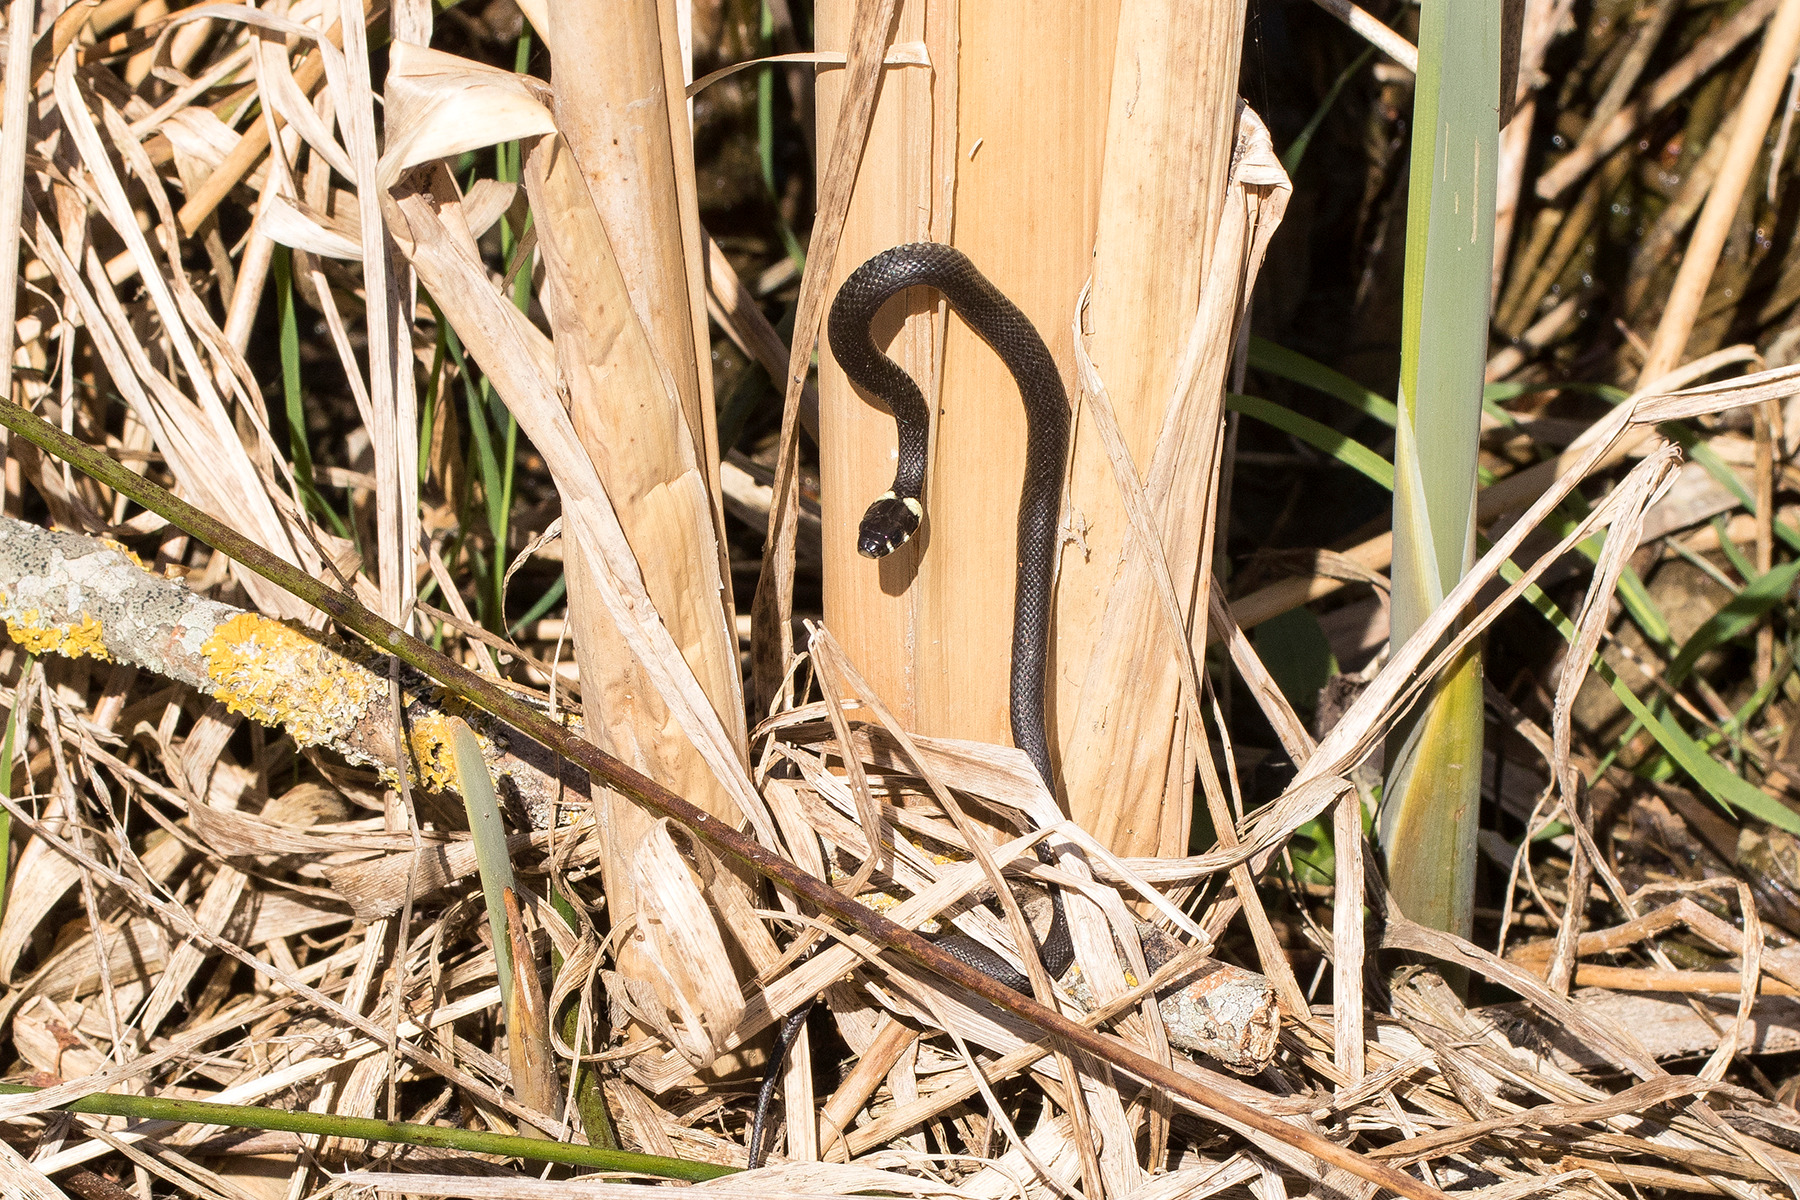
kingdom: Animalia
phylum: Chordata
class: Squamata
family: Colubridae
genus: Natrix
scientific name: Natrix natrix
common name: Snog
